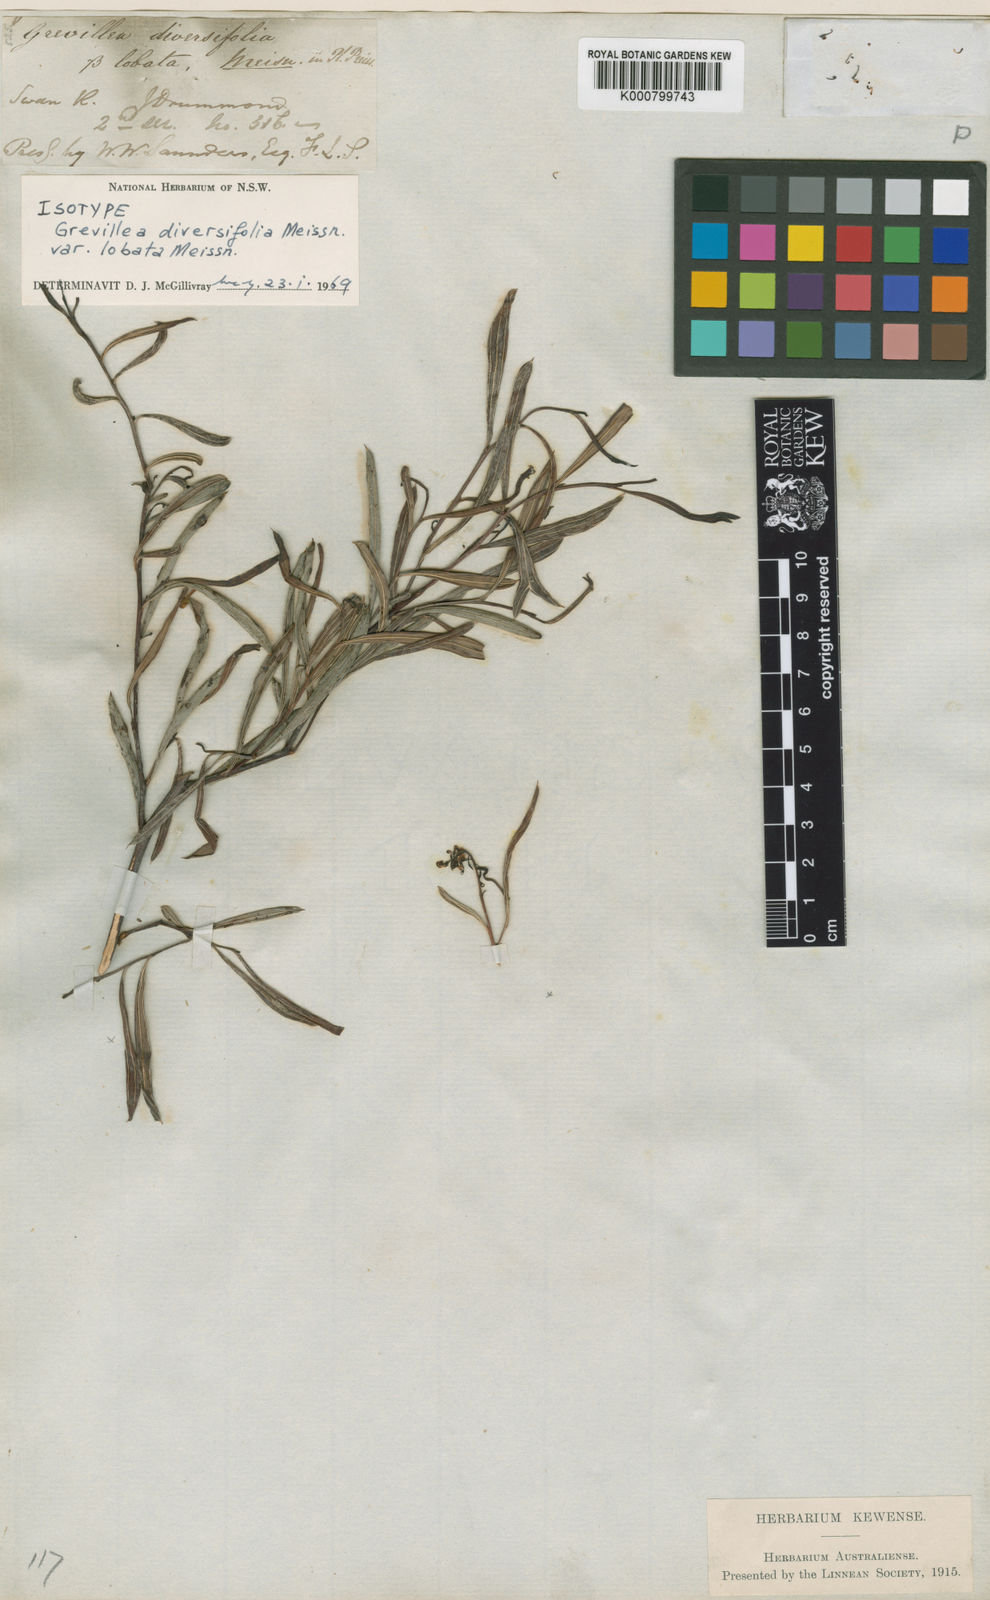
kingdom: Plantae
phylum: Tracheophyta
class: Magnoliopsida
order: Proteales
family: Proteaceae
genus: Grevillea
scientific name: Grevillea papillosa
